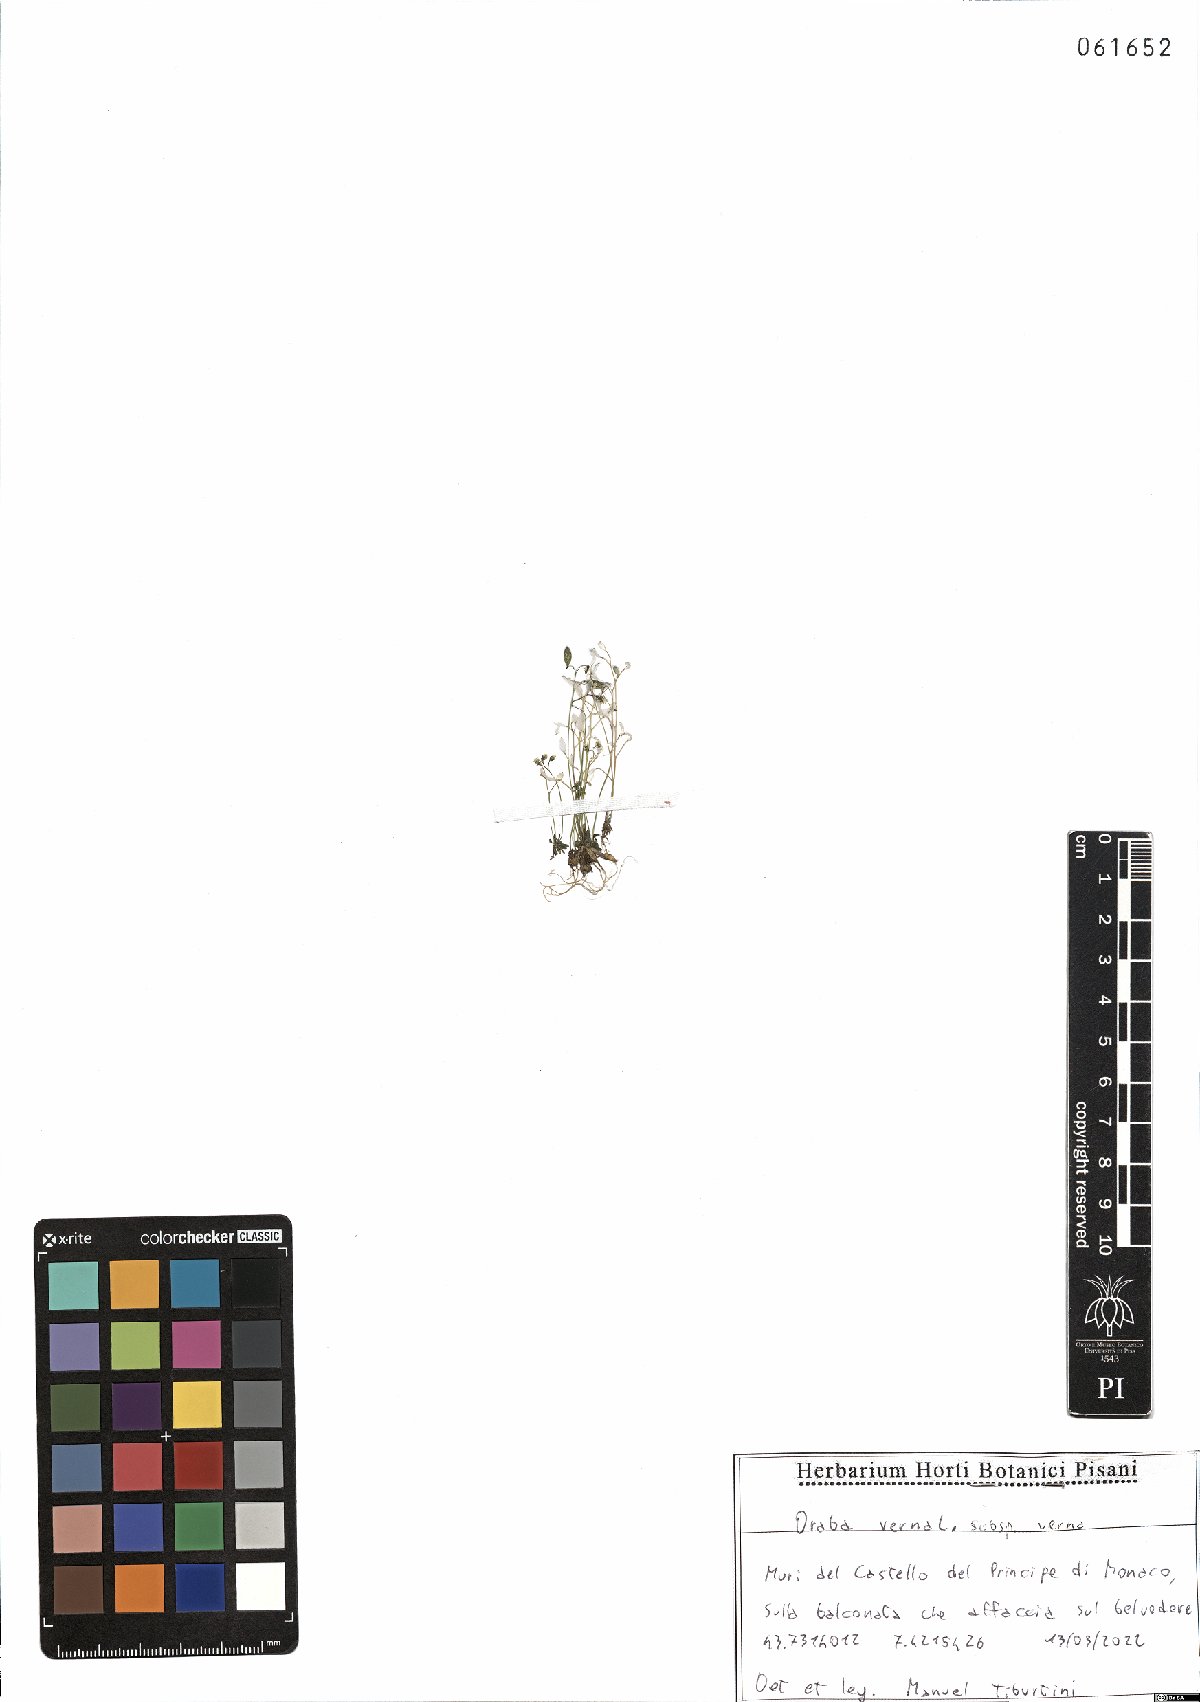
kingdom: Plantae
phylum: Tracheophyta
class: Magnoliopsida
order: Brassicales
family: Brassicaceae
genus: Draba
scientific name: Draba verna
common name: Spring draba
